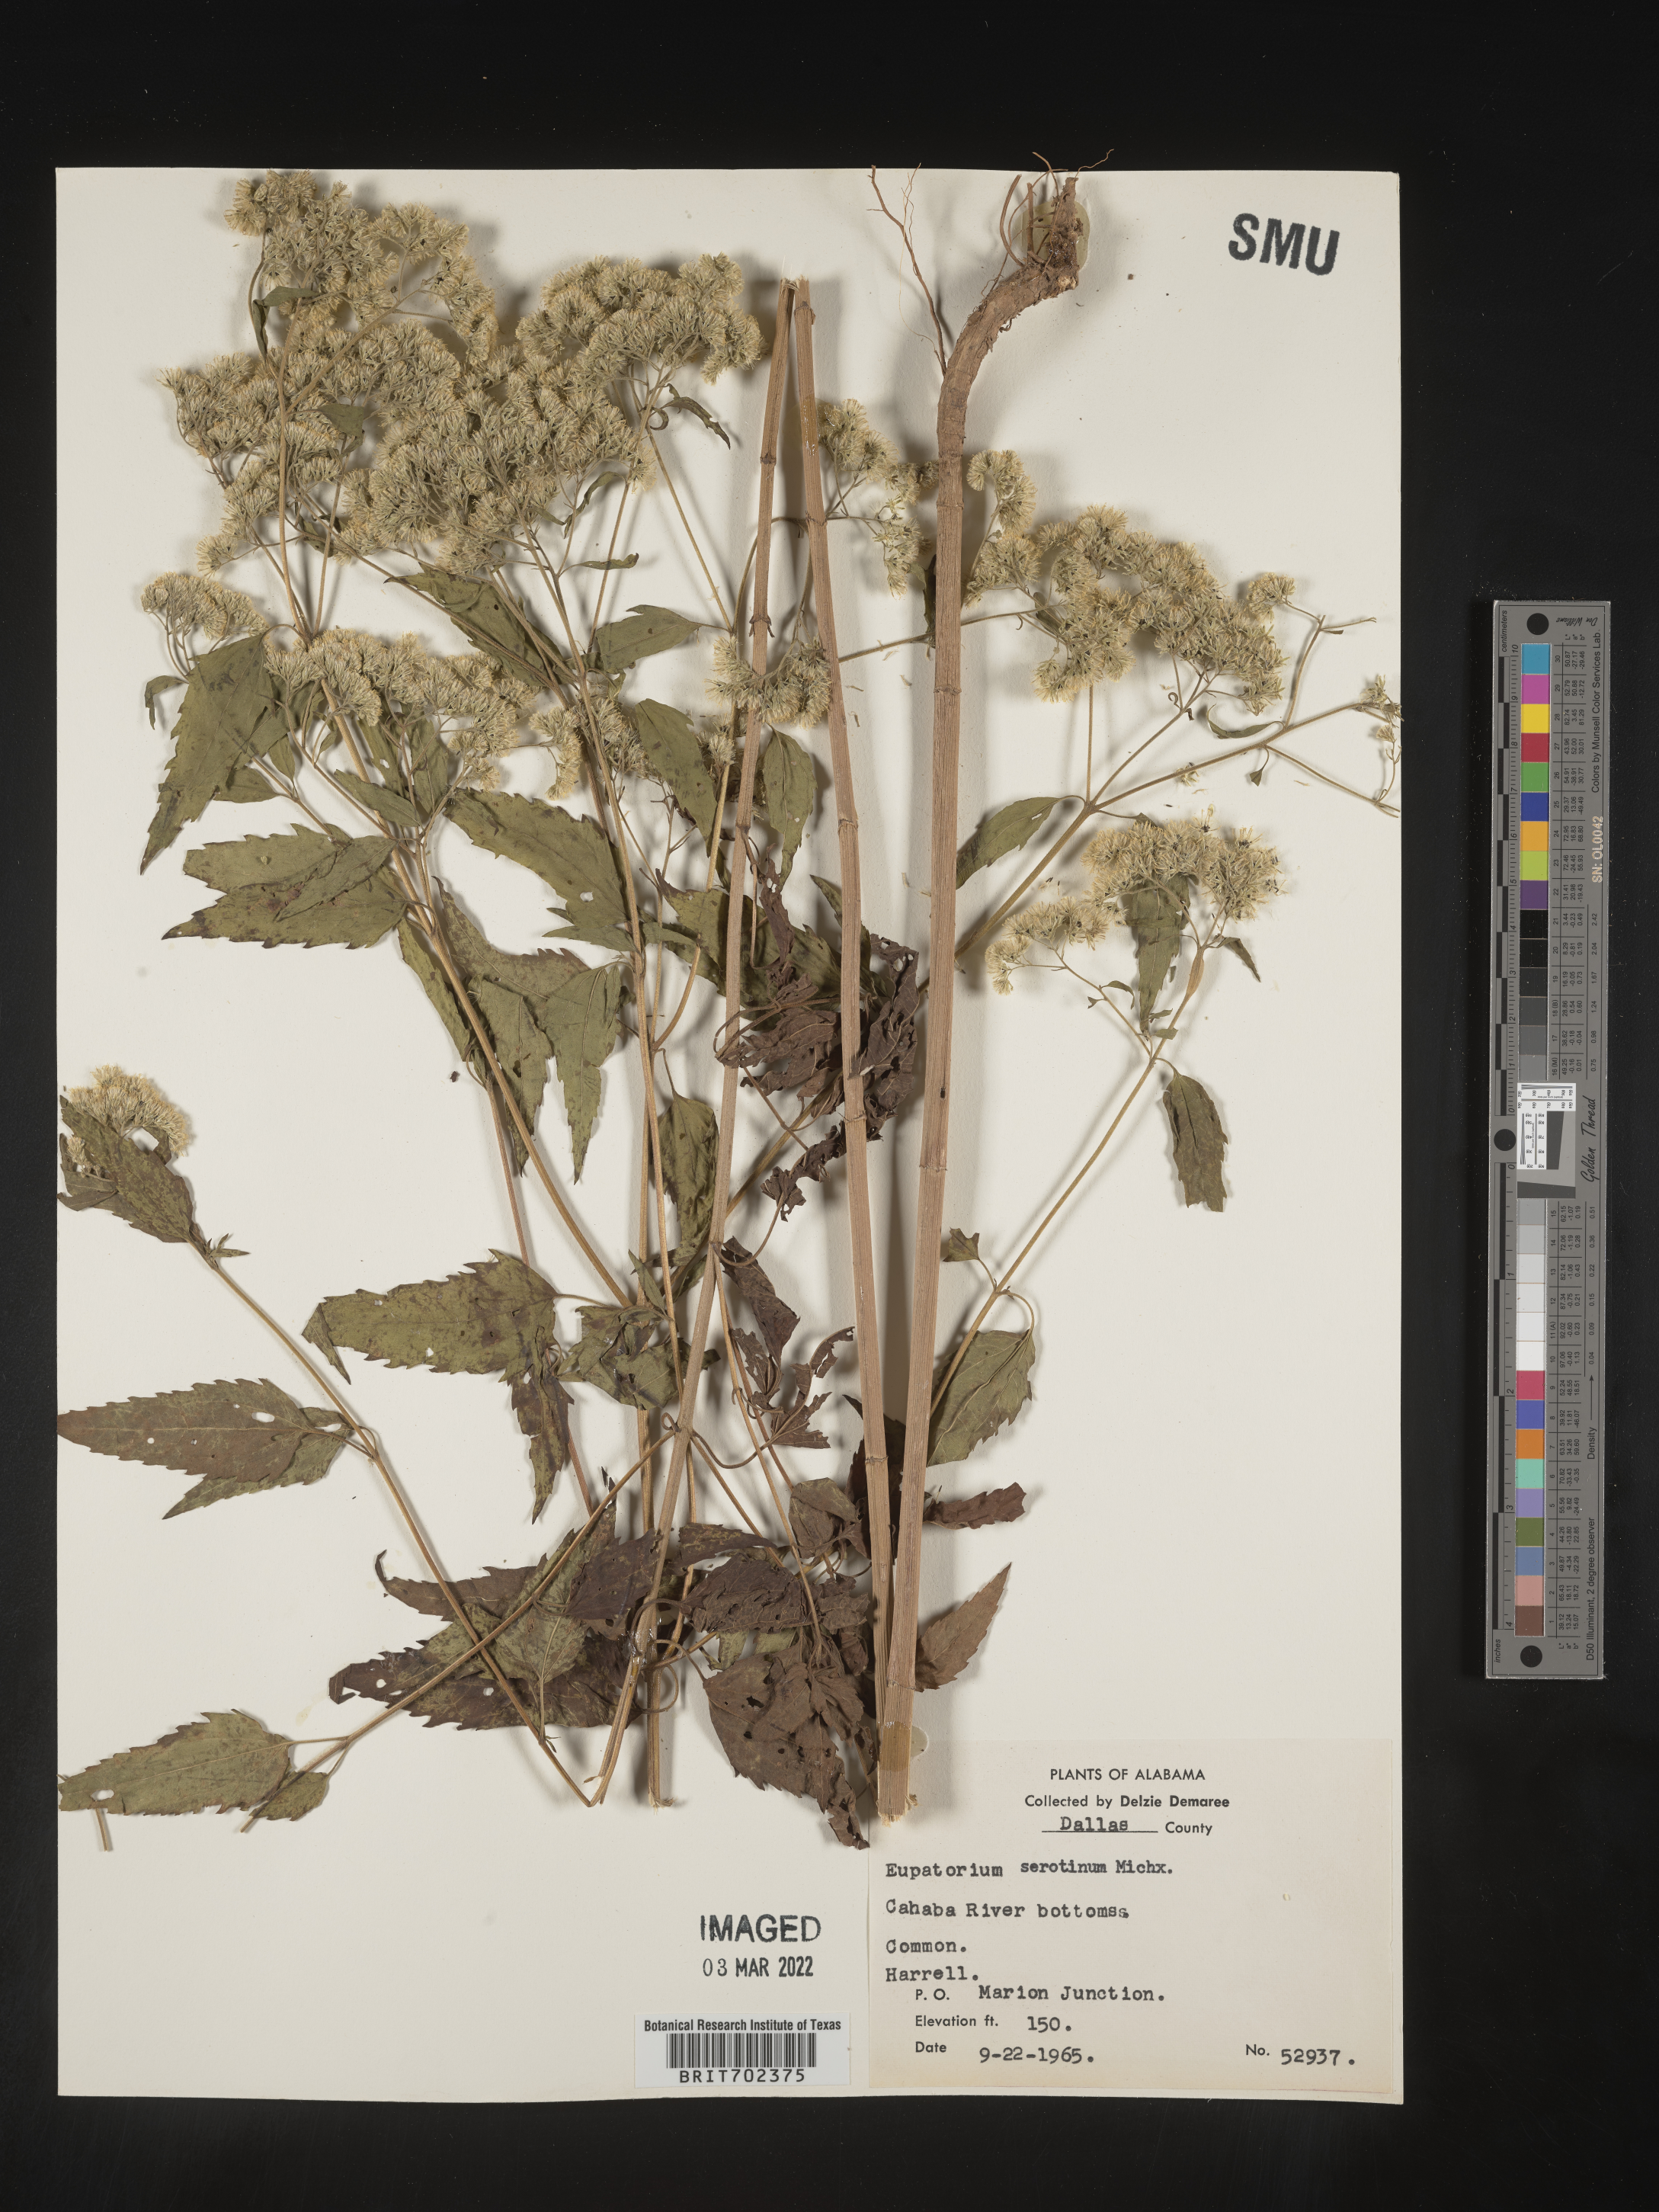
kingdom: Plantae
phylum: Tracheophyta
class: Magnoliopsida
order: Asterales
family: Asteraceae
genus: Eupatorium
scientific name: Eupatorium serotinum
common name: Late boneset
